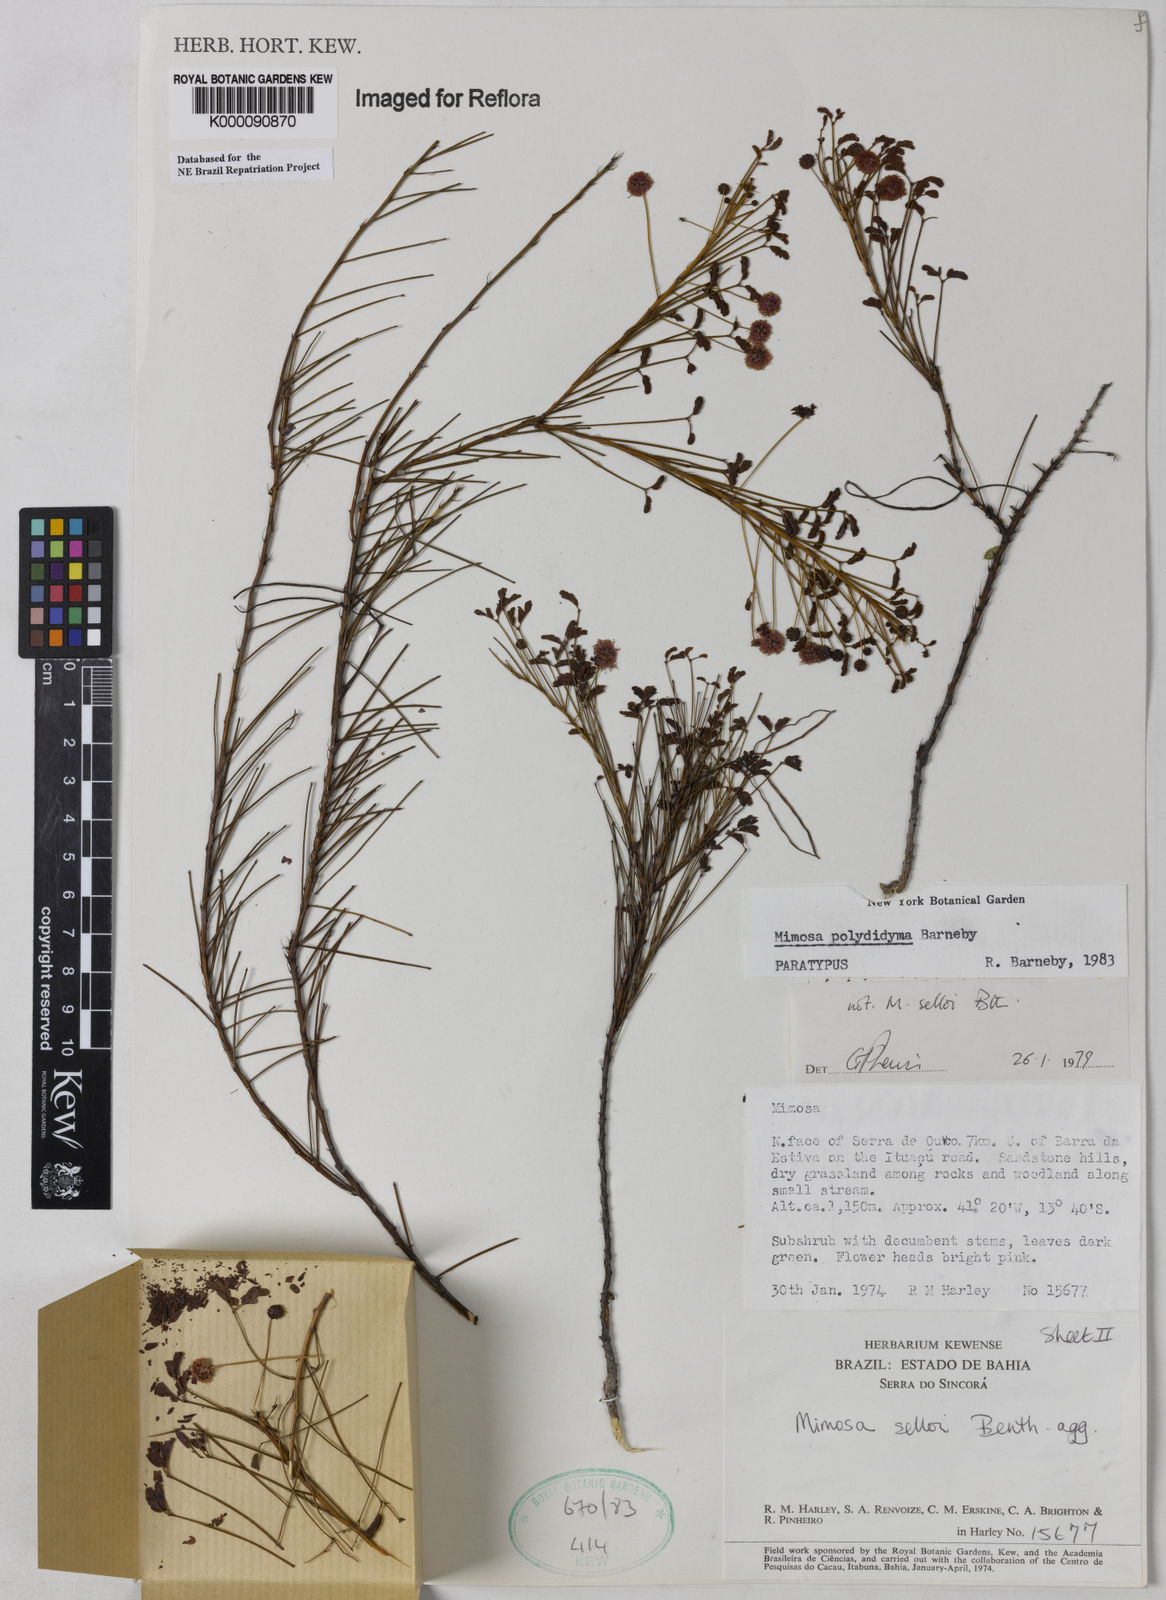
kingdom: Plantae
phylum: Tracheophyta
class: Magnoliopsida
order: Fabales
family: Fabaceae
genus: Mimosa
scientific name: Mimosa polydidyma
